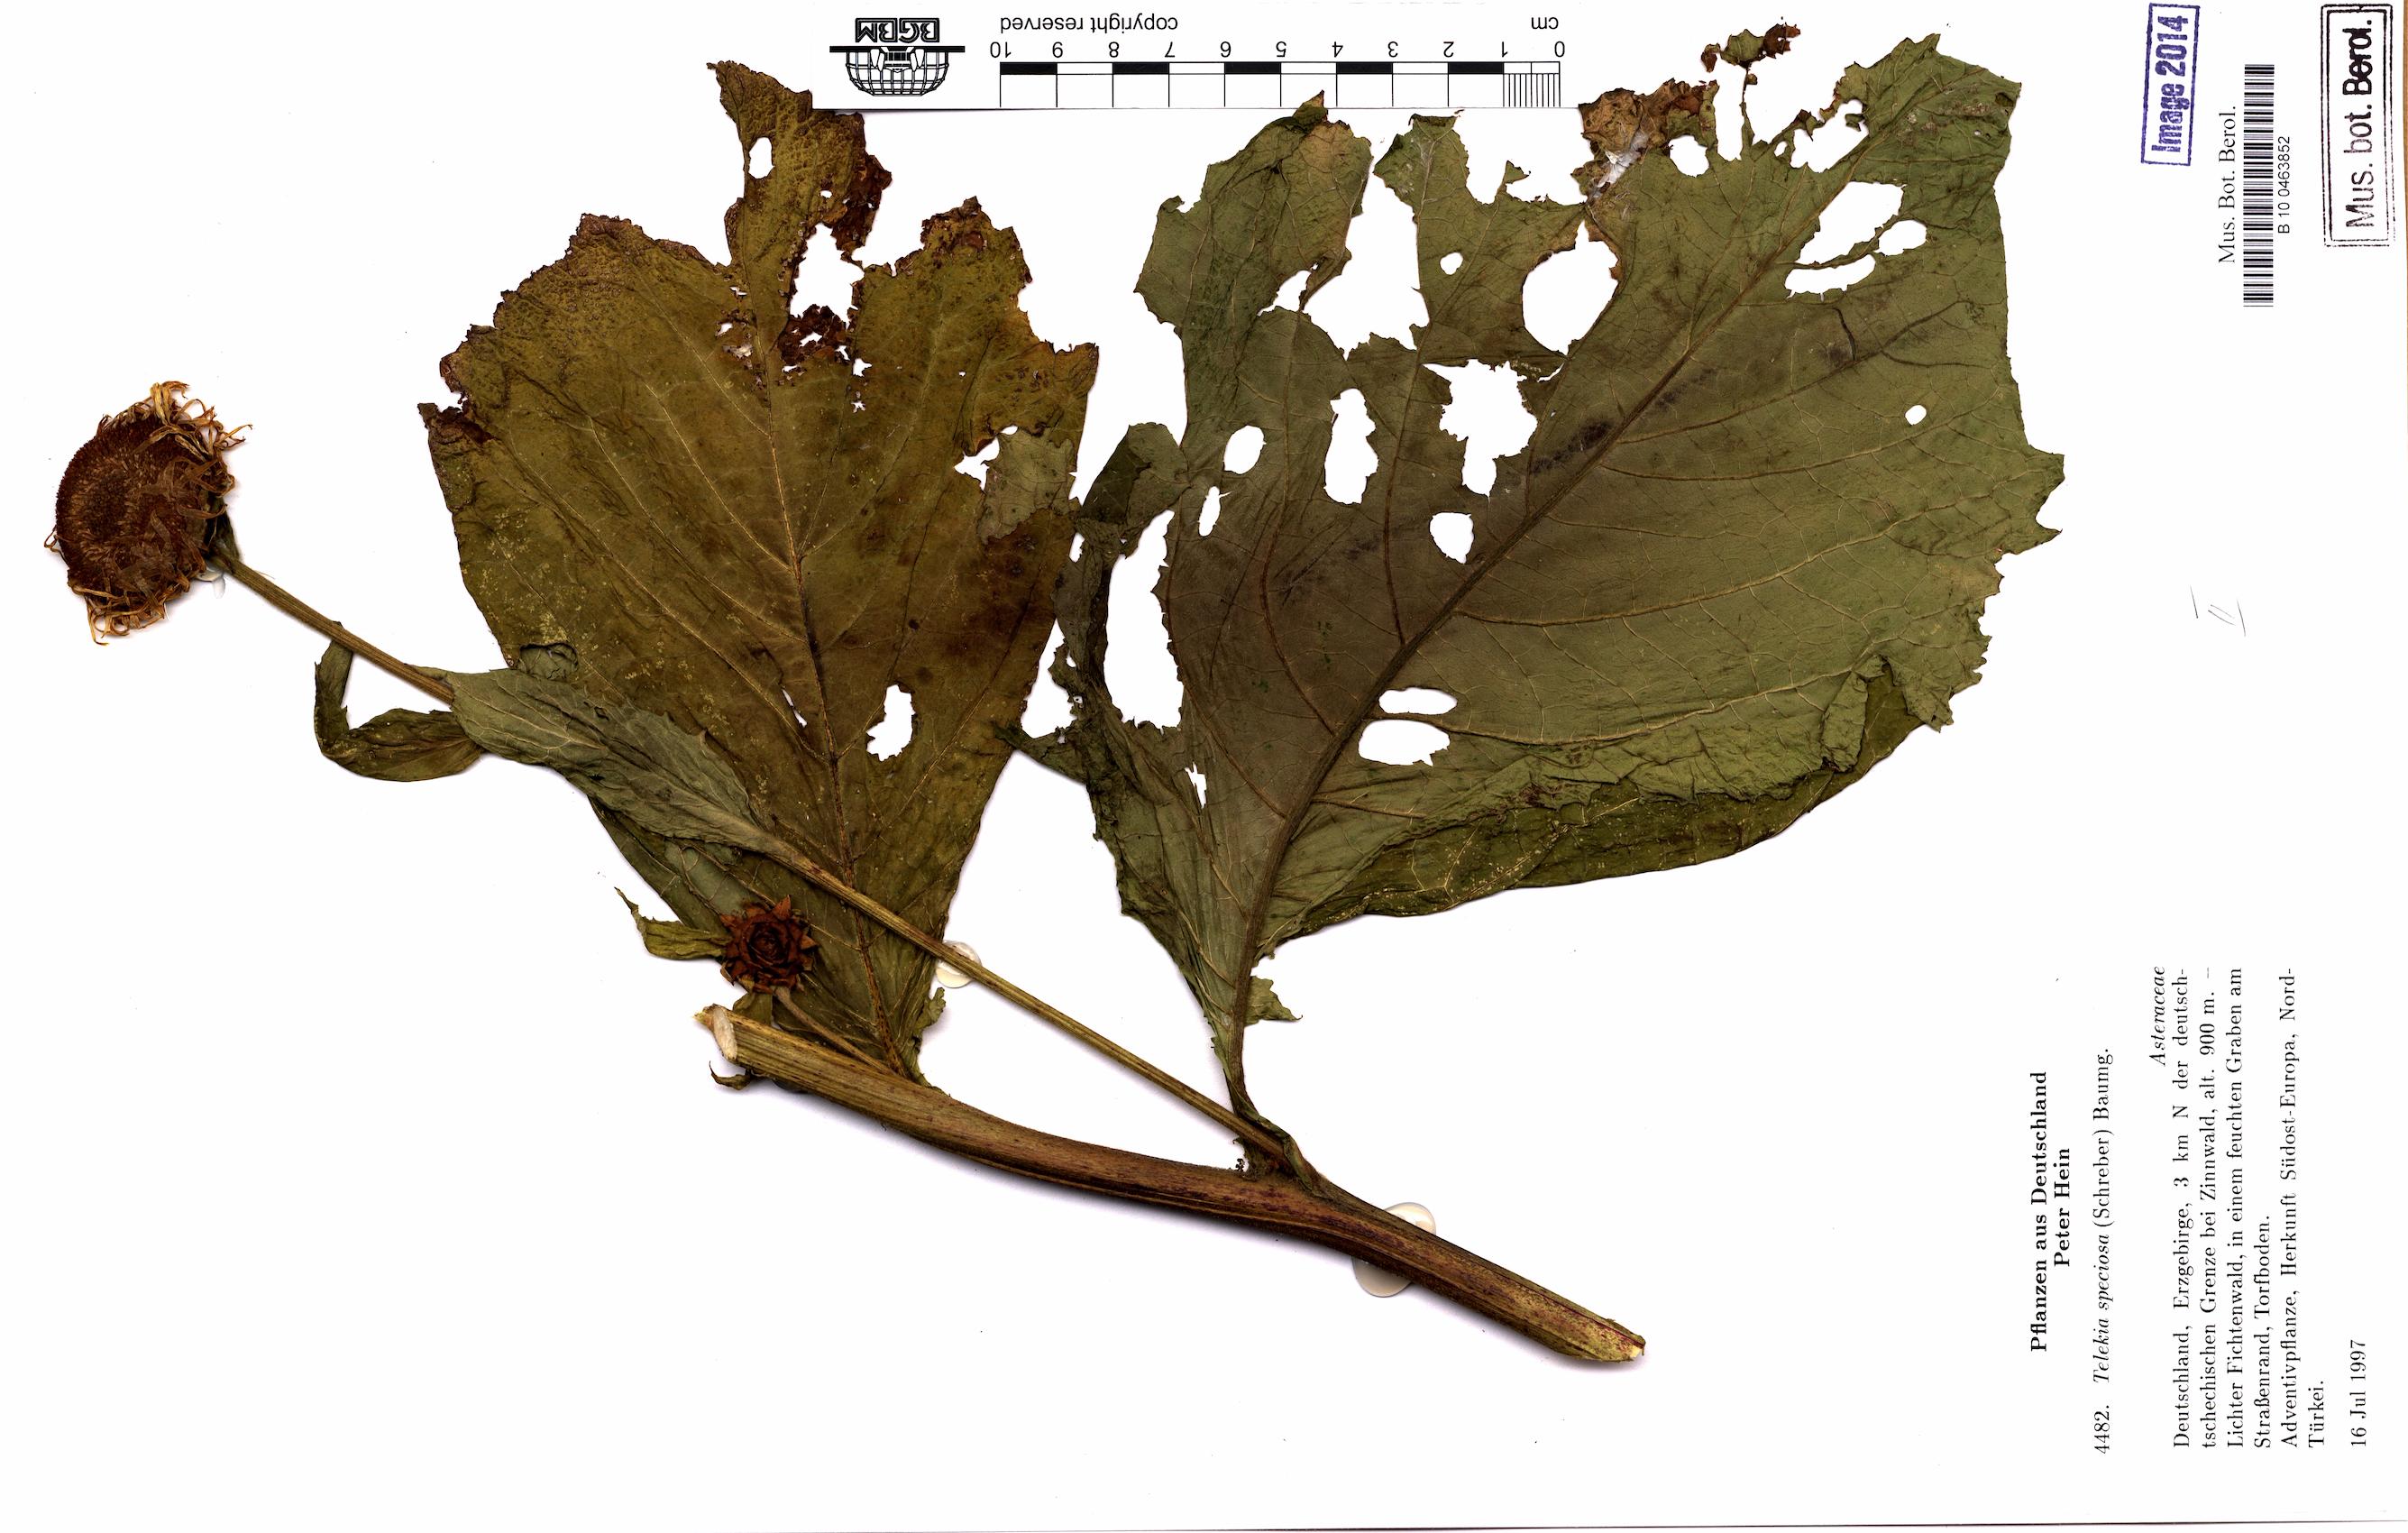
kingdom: Plantae
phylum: Tracheophyta
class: Magnoliopsida
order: Asterales
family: Asteraceae
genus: Telekia
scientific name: Telekia speciosa
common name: Yellow oxeye
